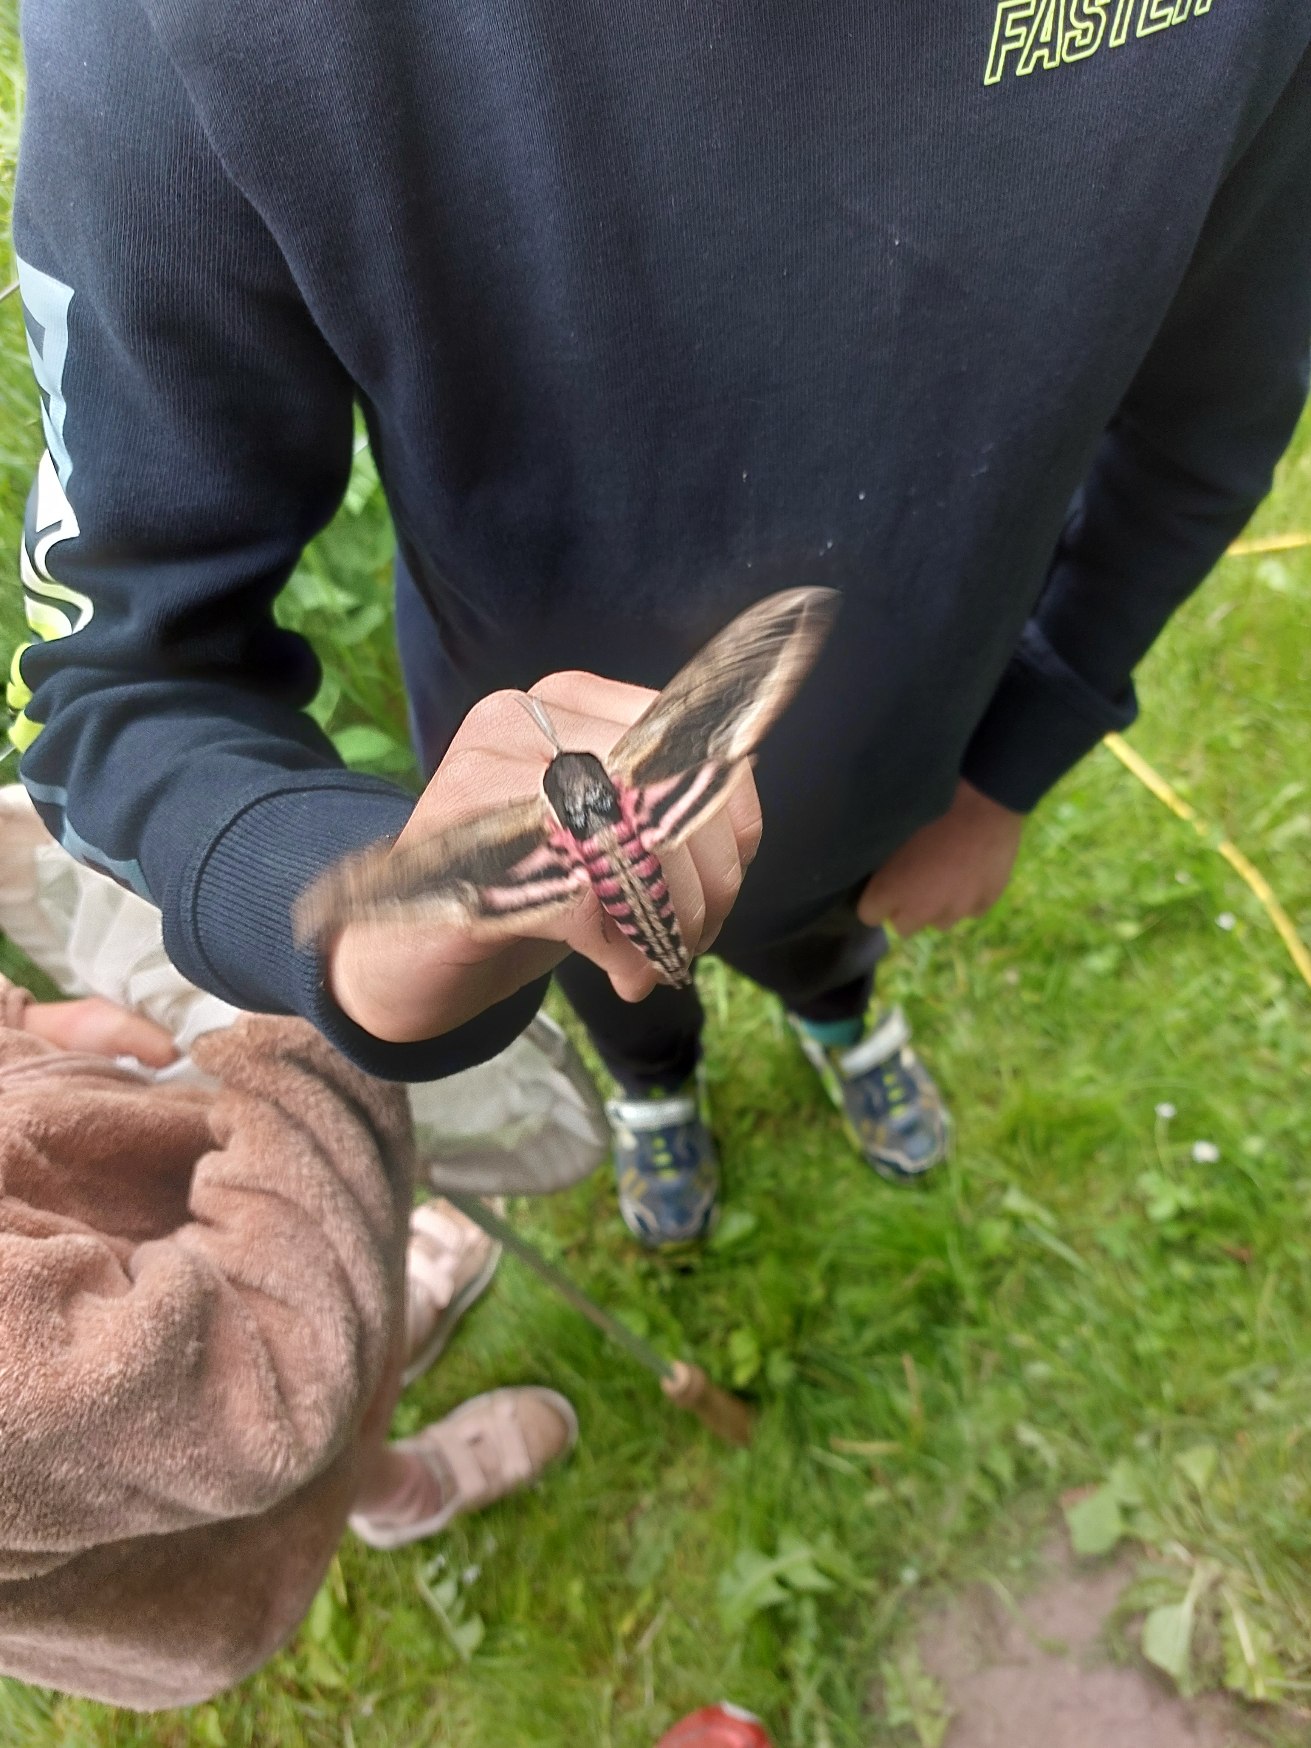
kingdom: Animalia
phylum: Arthropoda
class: Insecta
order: Lepidoptera
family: Sphingidae
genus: Sphinx
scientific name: Sphinx ligustri
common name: Ligustersværmer
